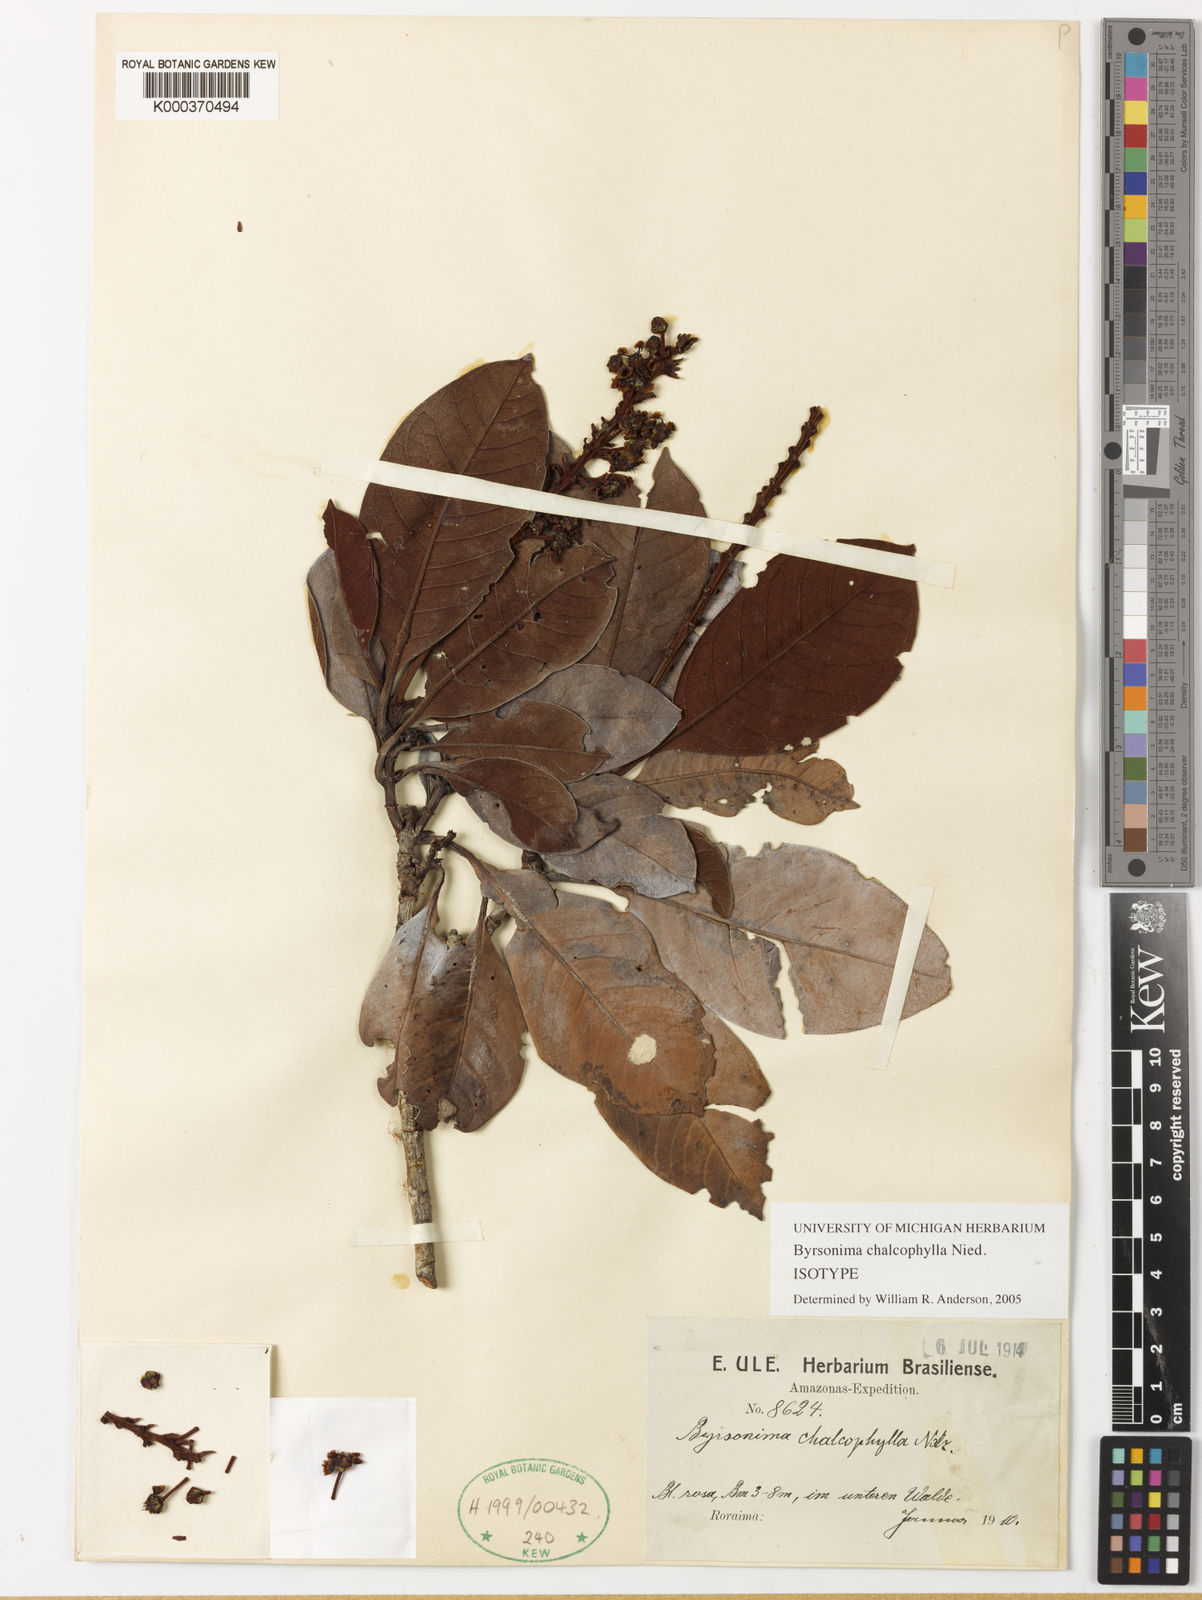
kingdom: Plantae
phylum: Tracheophyta
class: Magnoliopsida
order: Malpighiales
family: Malpighiaceae
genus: Byrsonima
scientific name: Byrsonima chalcophylla
